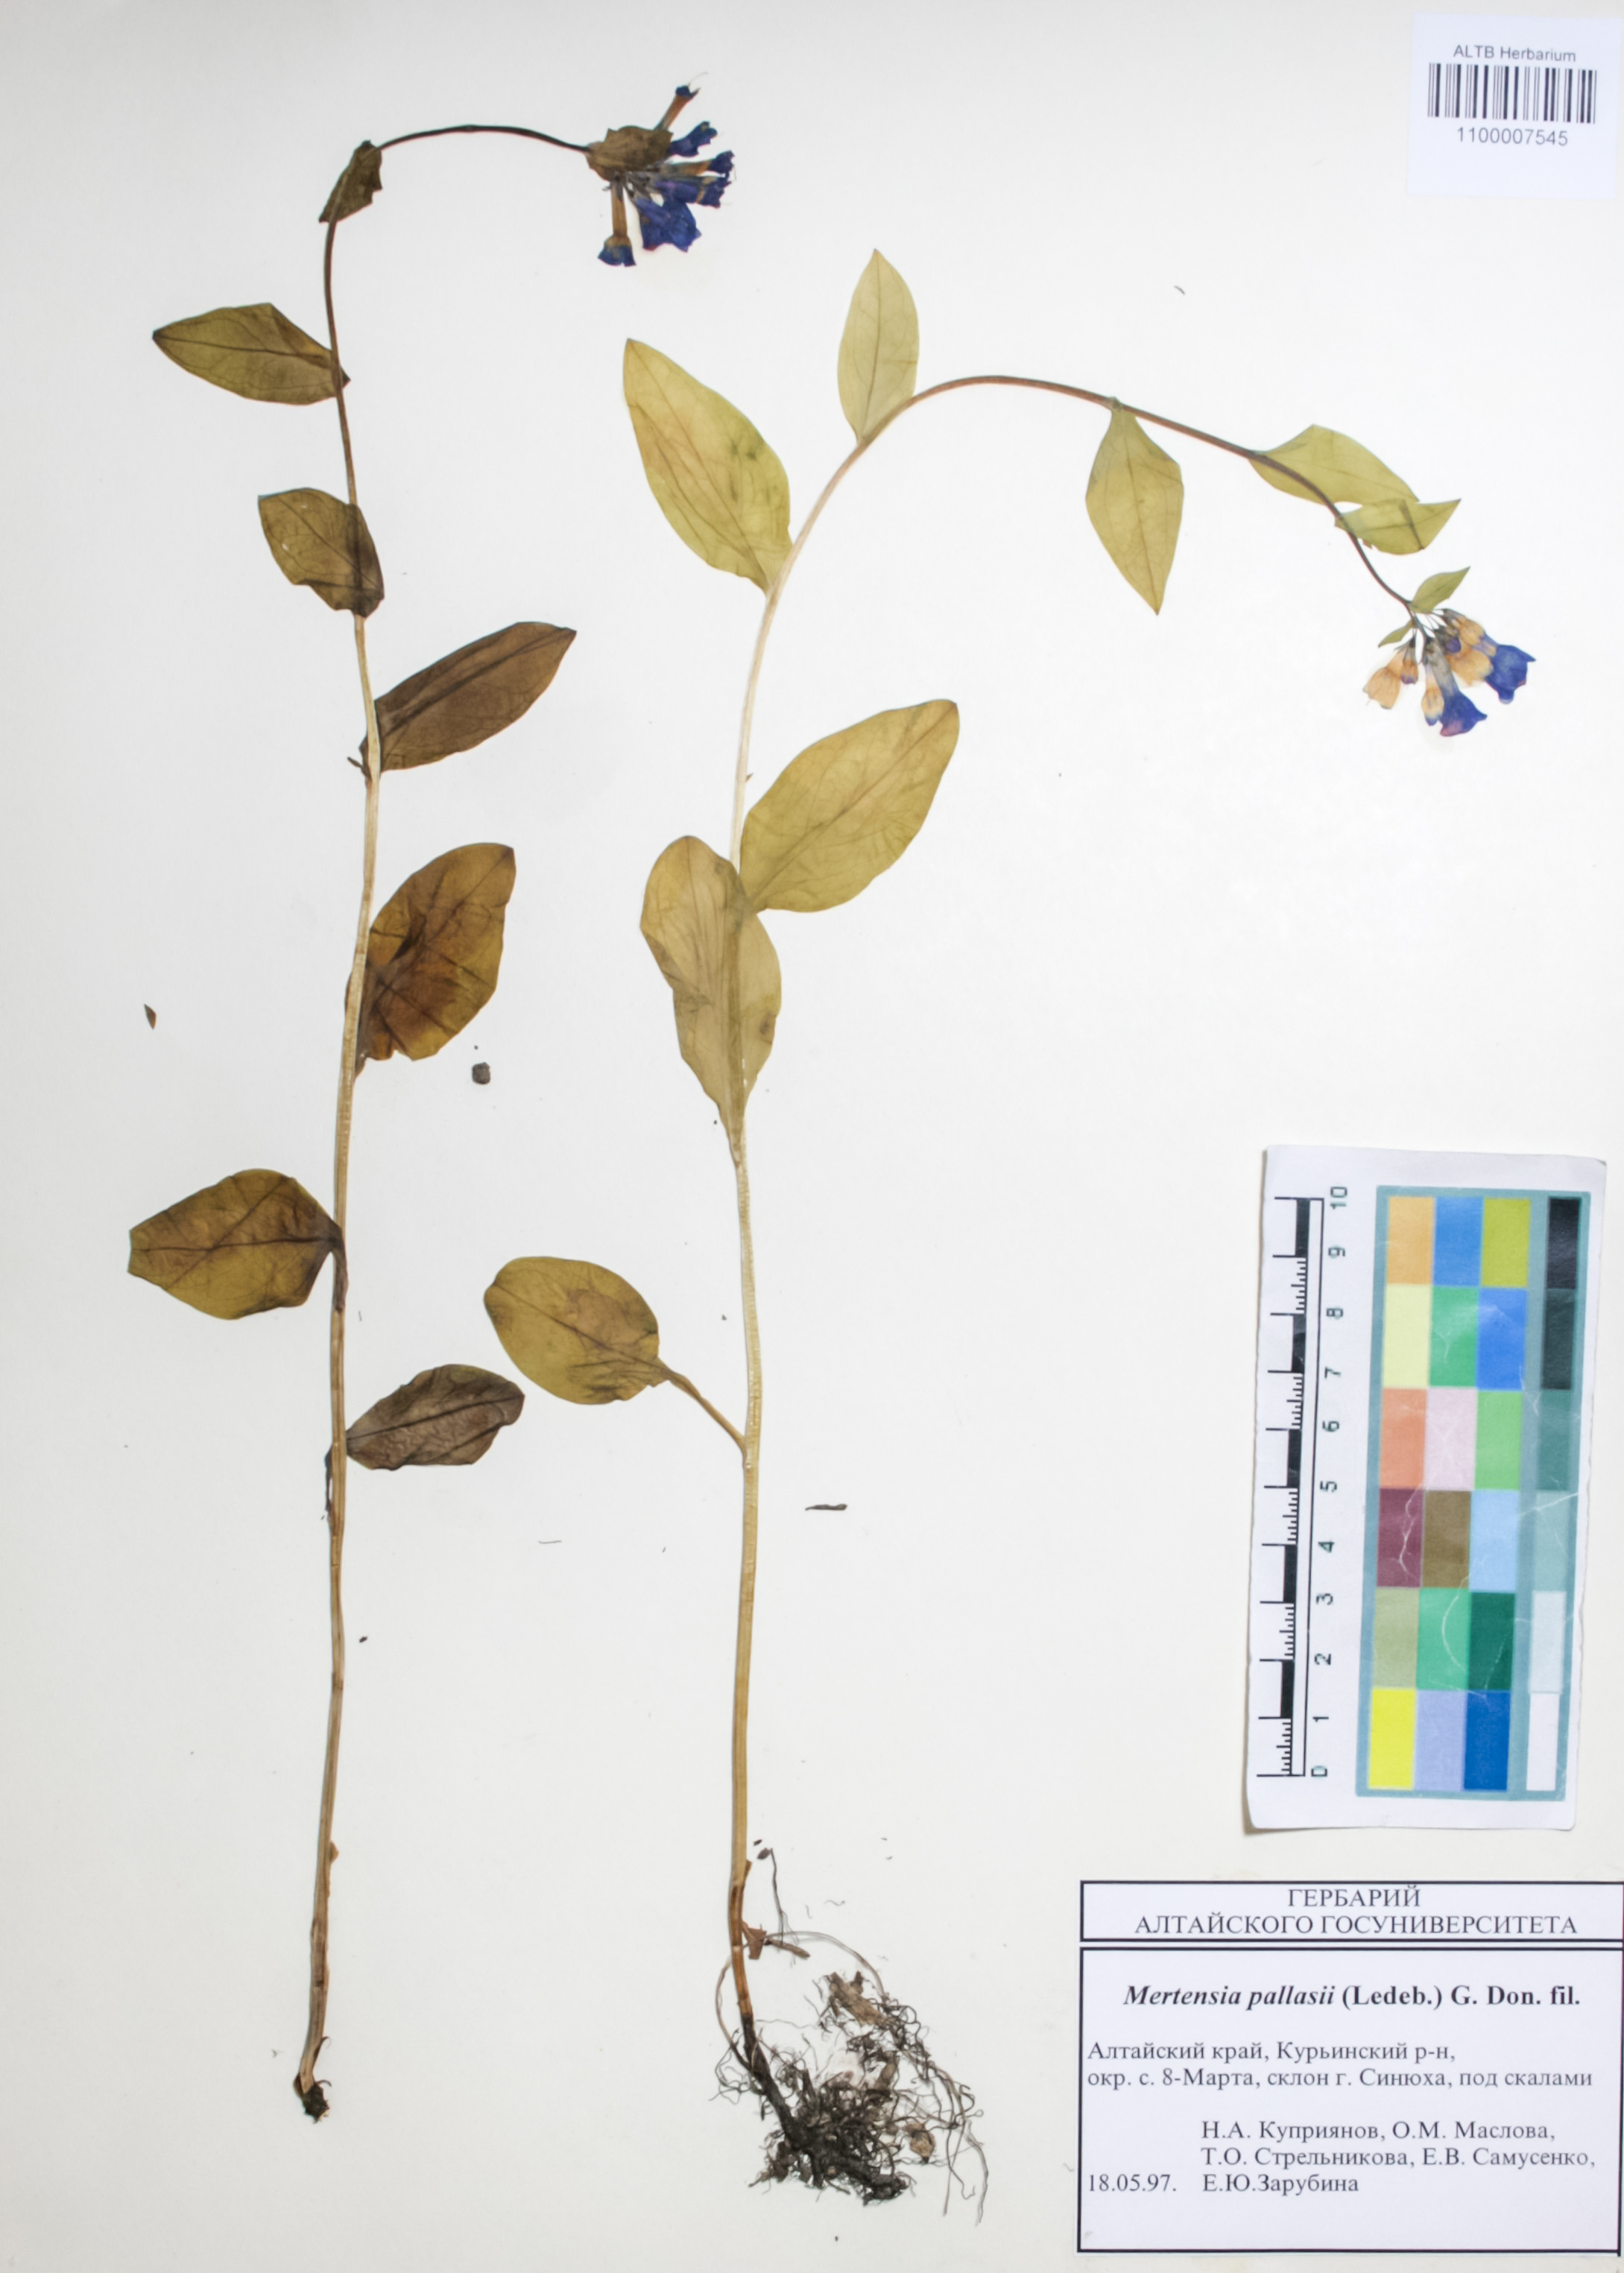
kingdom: Plantae
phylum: Tracheophyta
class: Magnoliopsida
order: Boraginales
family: Boraginaceae
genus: Mertensia
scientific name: Mertensia pallasii
